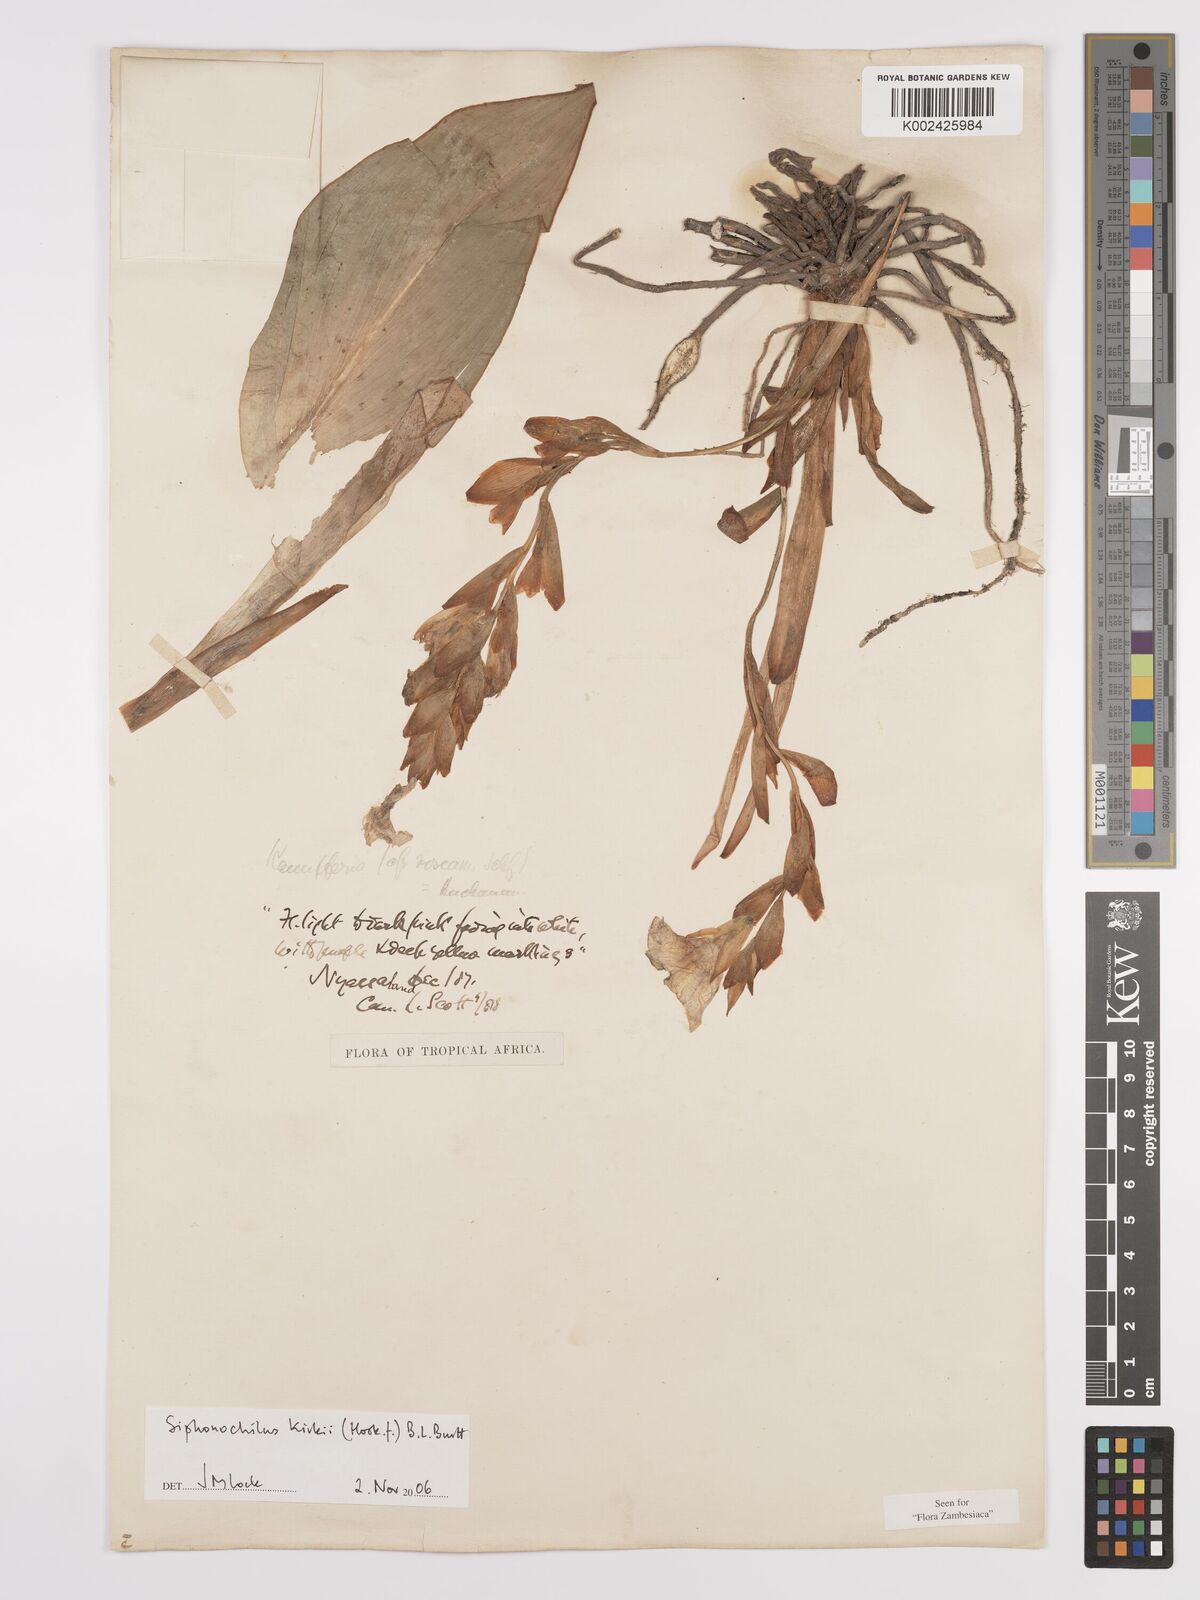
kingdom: Plantae
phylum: Tracheophyta
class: Liliopsida
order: Zingiberales
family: Zingiberaceae
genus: Siphonochilus
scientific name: Siphonochilus kirkii
